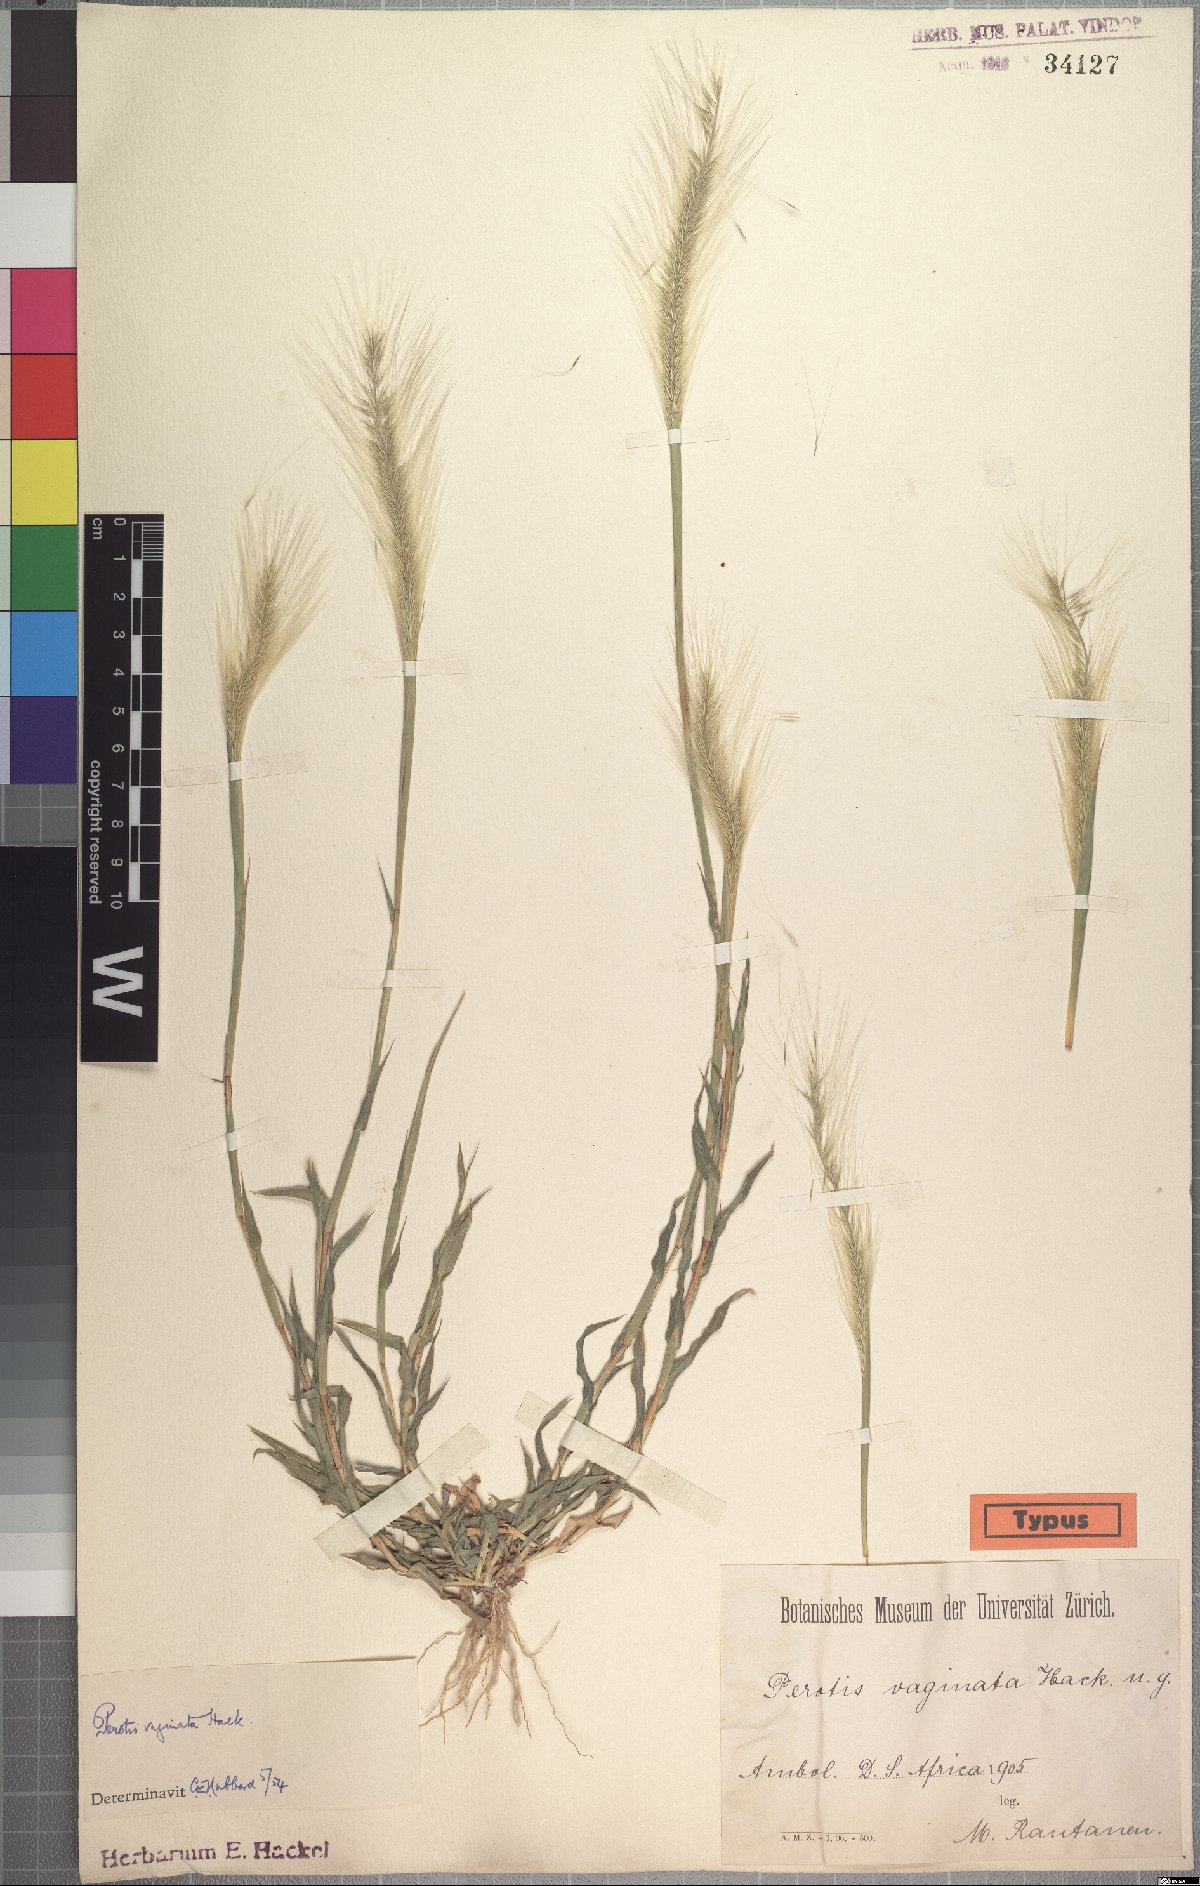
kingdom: Plantae
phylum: Tracheophyta
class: Liliopsida
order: Poales
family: Poaceae
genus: Perotis
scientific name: Perotis vaginata
